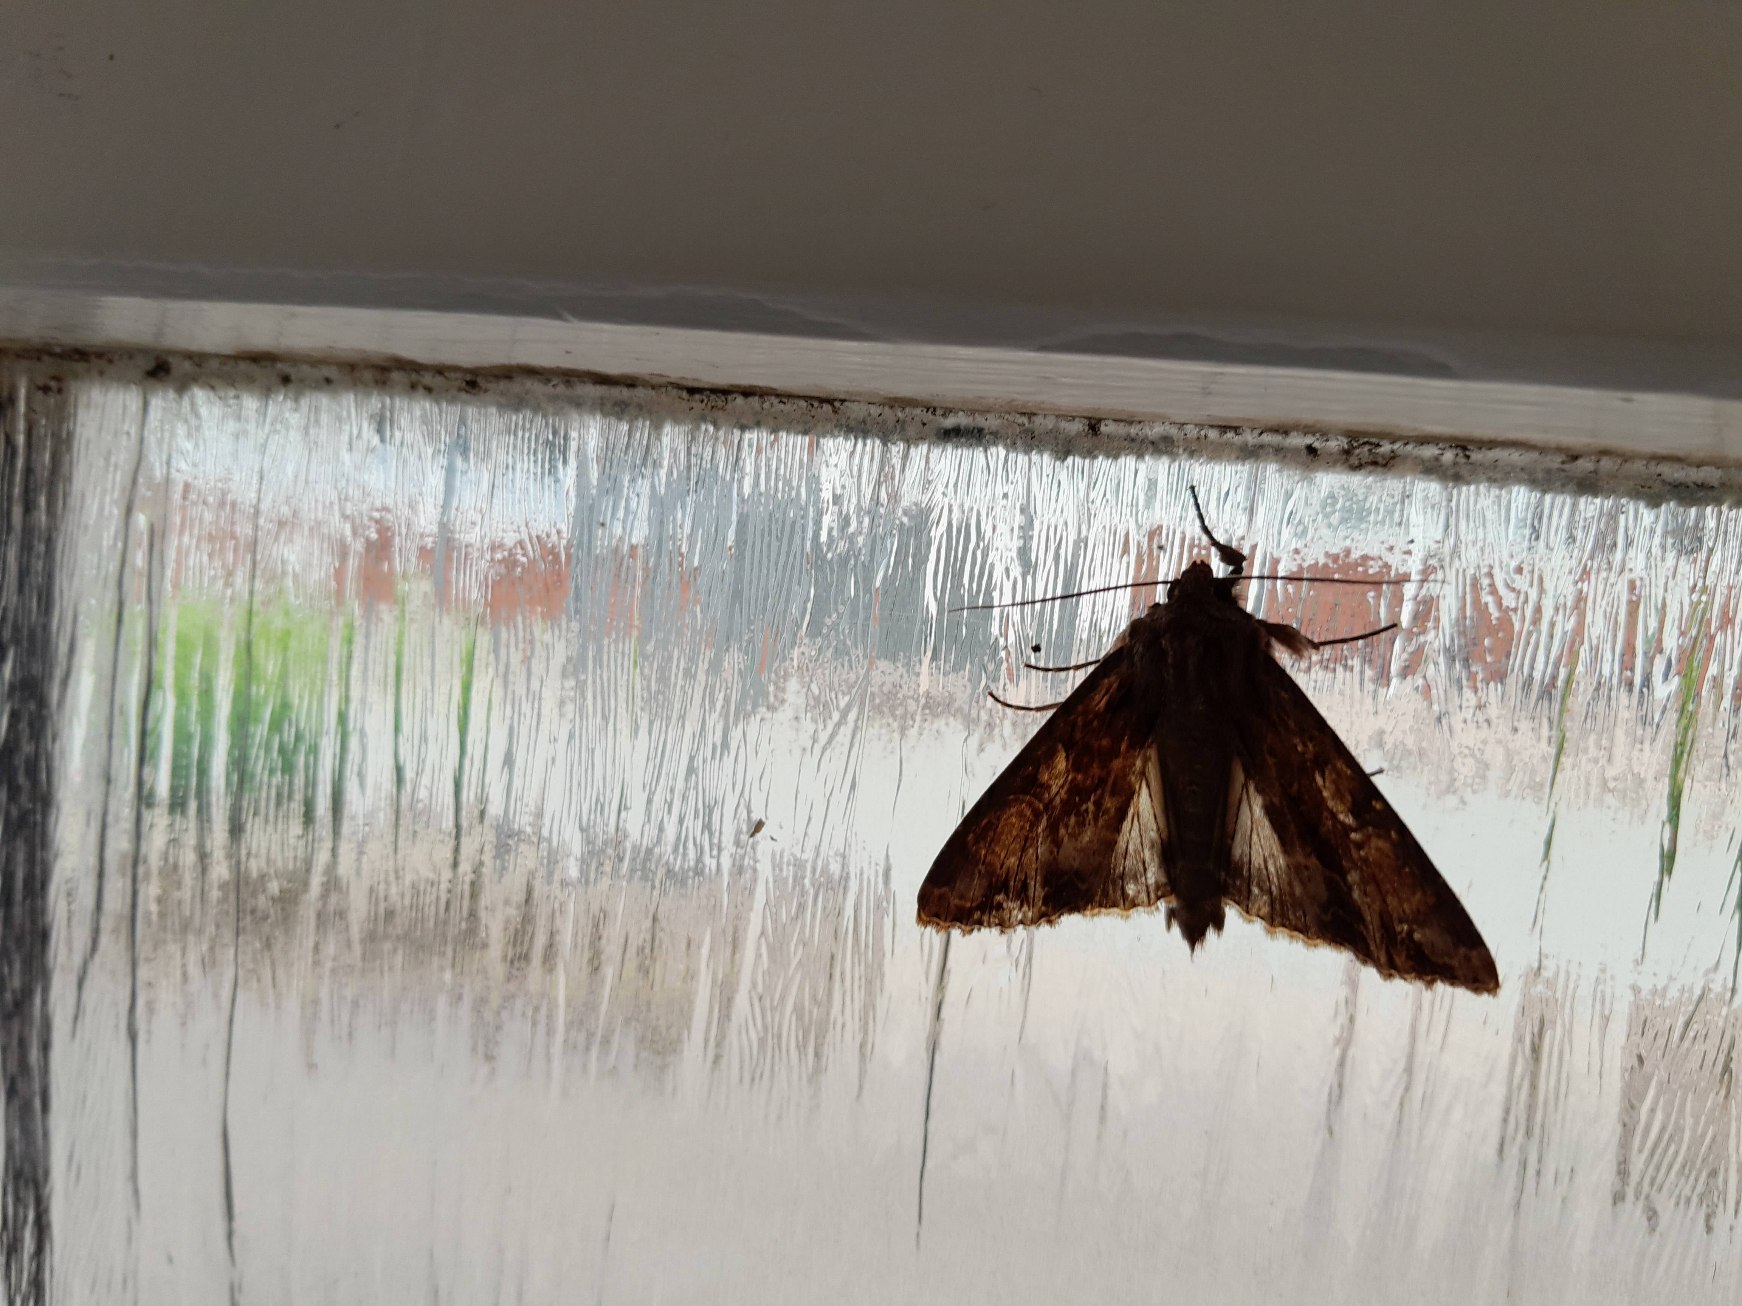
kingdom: Animalia
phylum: Arthropoda
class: Insecta
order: Lepidoptera
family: Noctuidae
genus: Apamea
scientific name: Apamea monoglypha
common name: Jordugle
